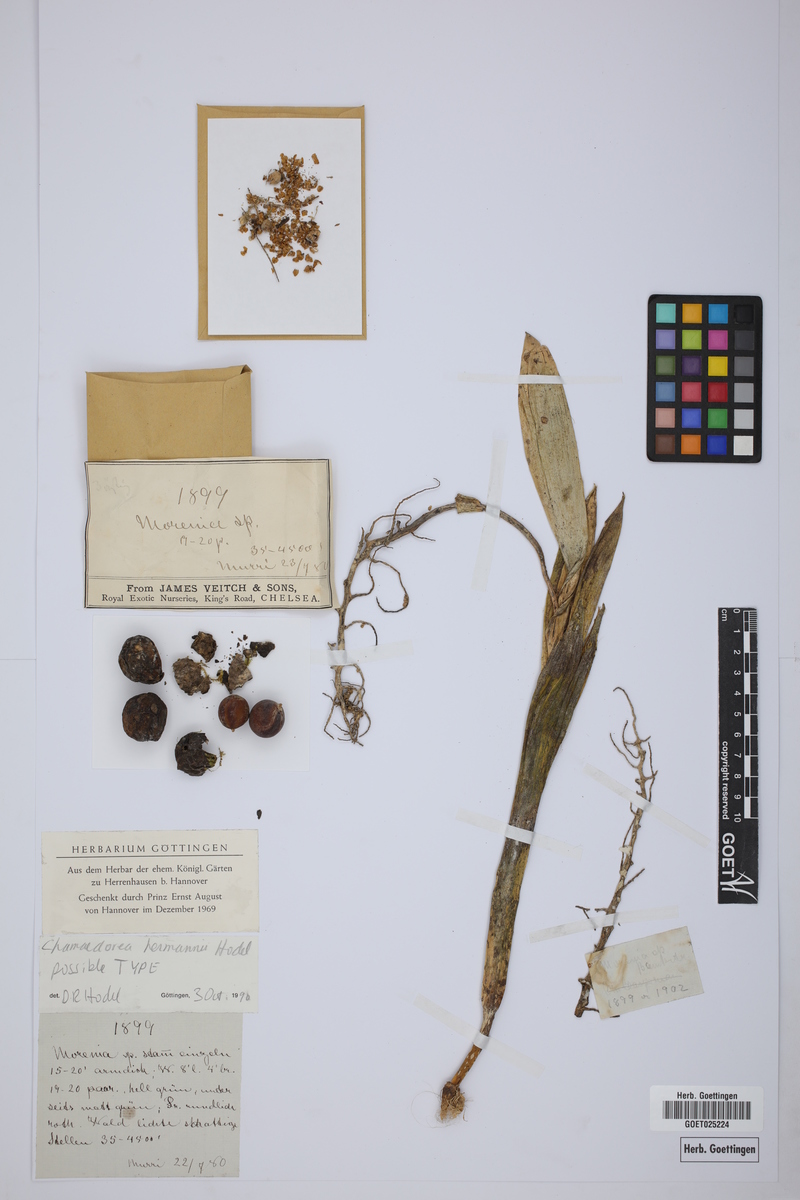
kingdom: Plantae
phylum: Tracheophyta
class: Liliopsida
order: Arecales
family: Arecaceae
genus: Chamaedorea
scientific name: Chamaedorea
